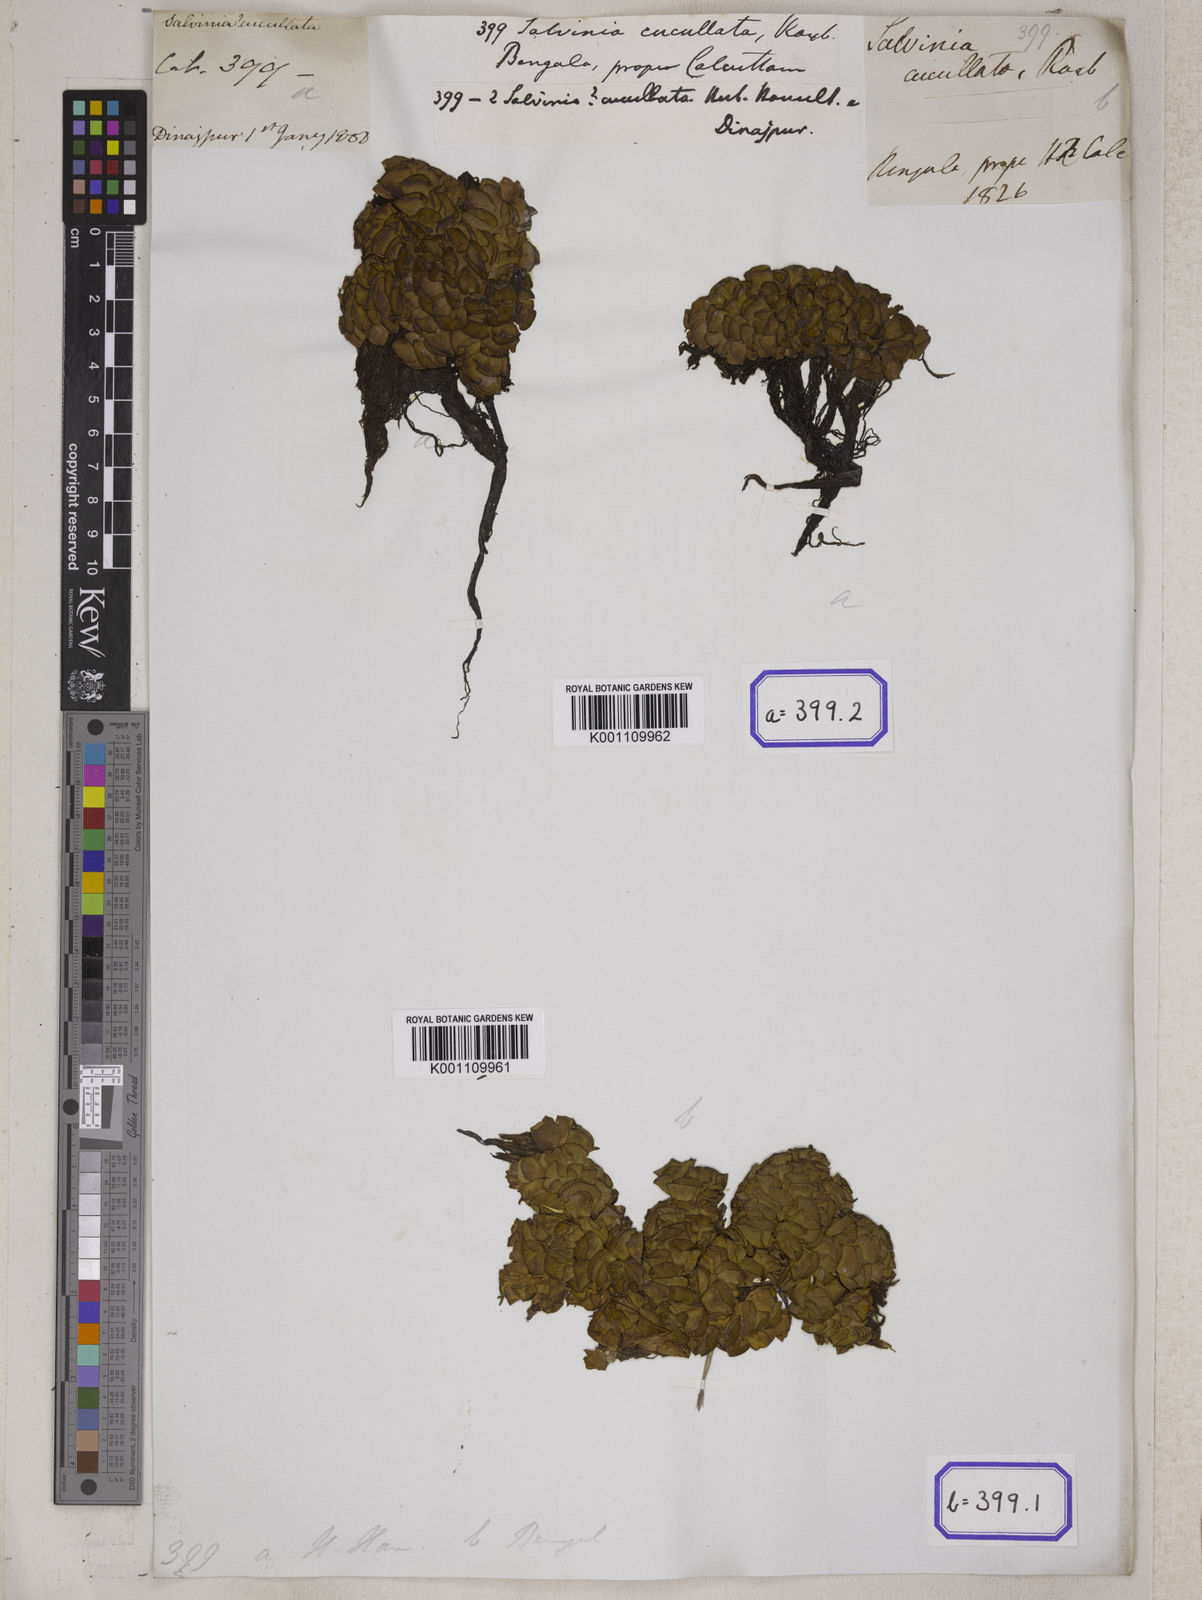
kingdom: Plantae
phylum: Tracheophyta
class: Polypodiopsida
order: Salviniales
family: Salviniaceae
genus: Salvinia
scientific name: Salvinia
